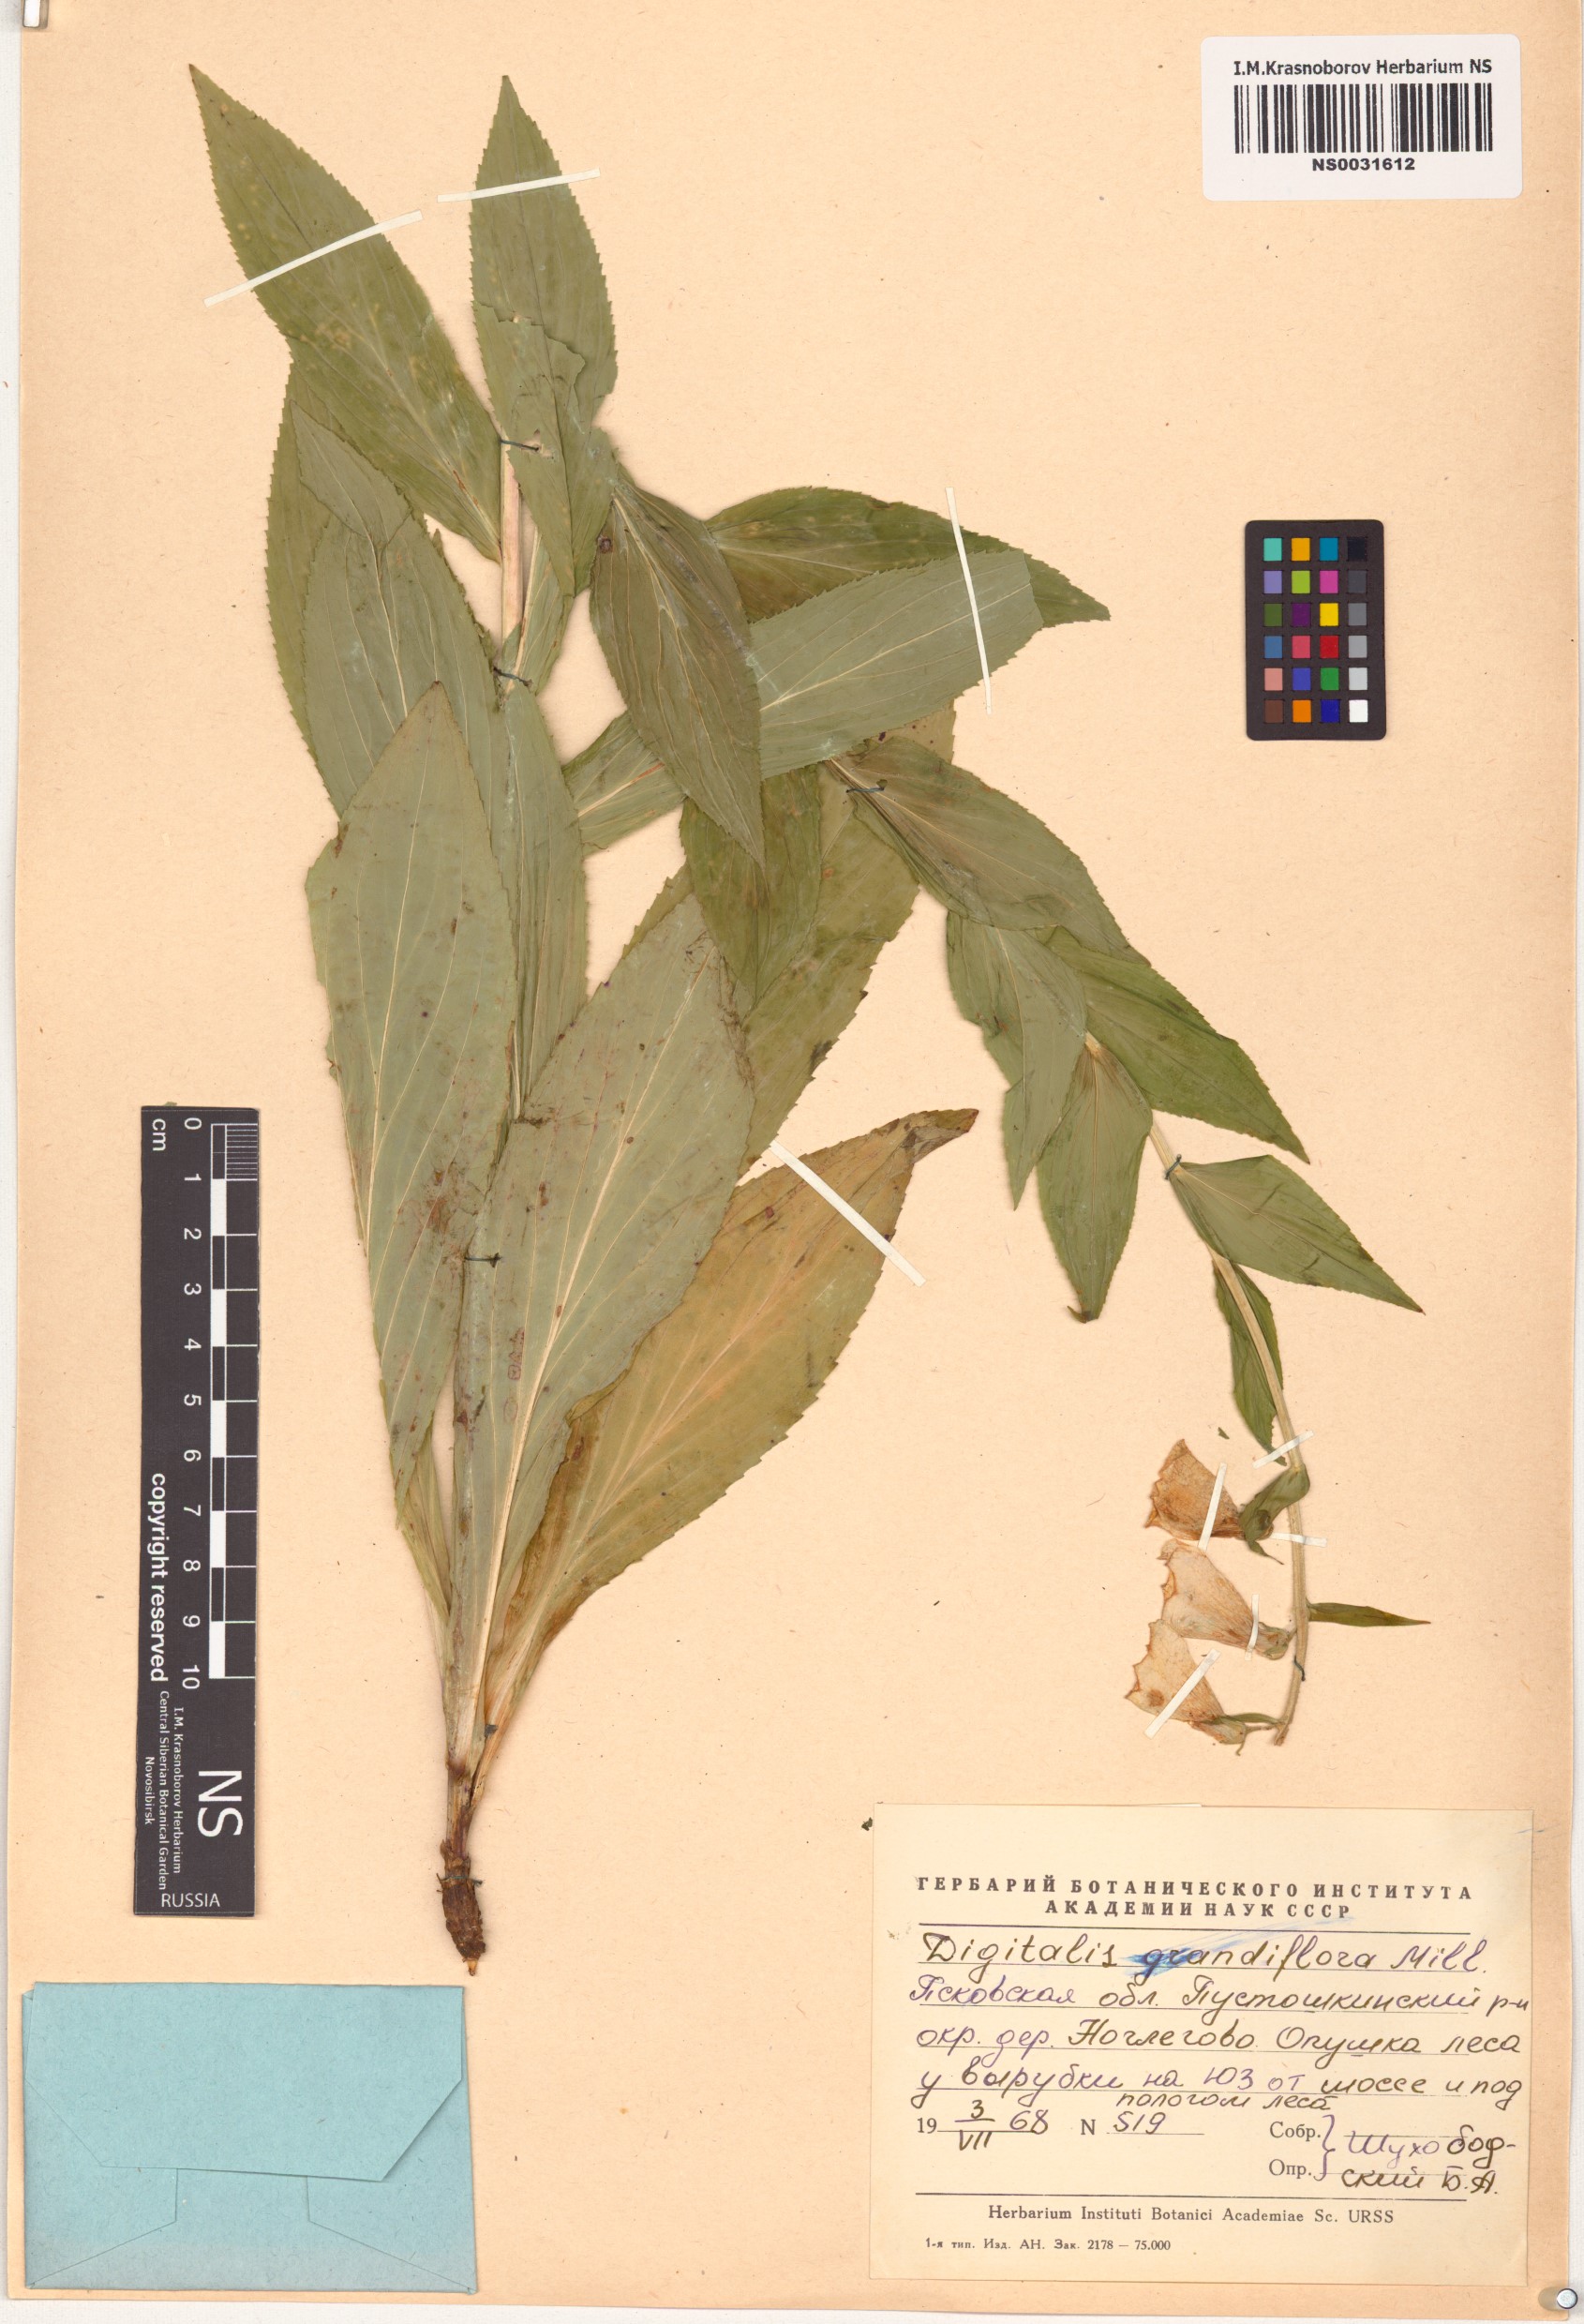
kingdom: Plantae
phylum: Tracheophyta
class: Magnoliopsida
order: Lamiales
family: Plantaginaceae
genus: Digitalis
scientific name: Digitalis grandiflora
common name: Yellow foxglove
